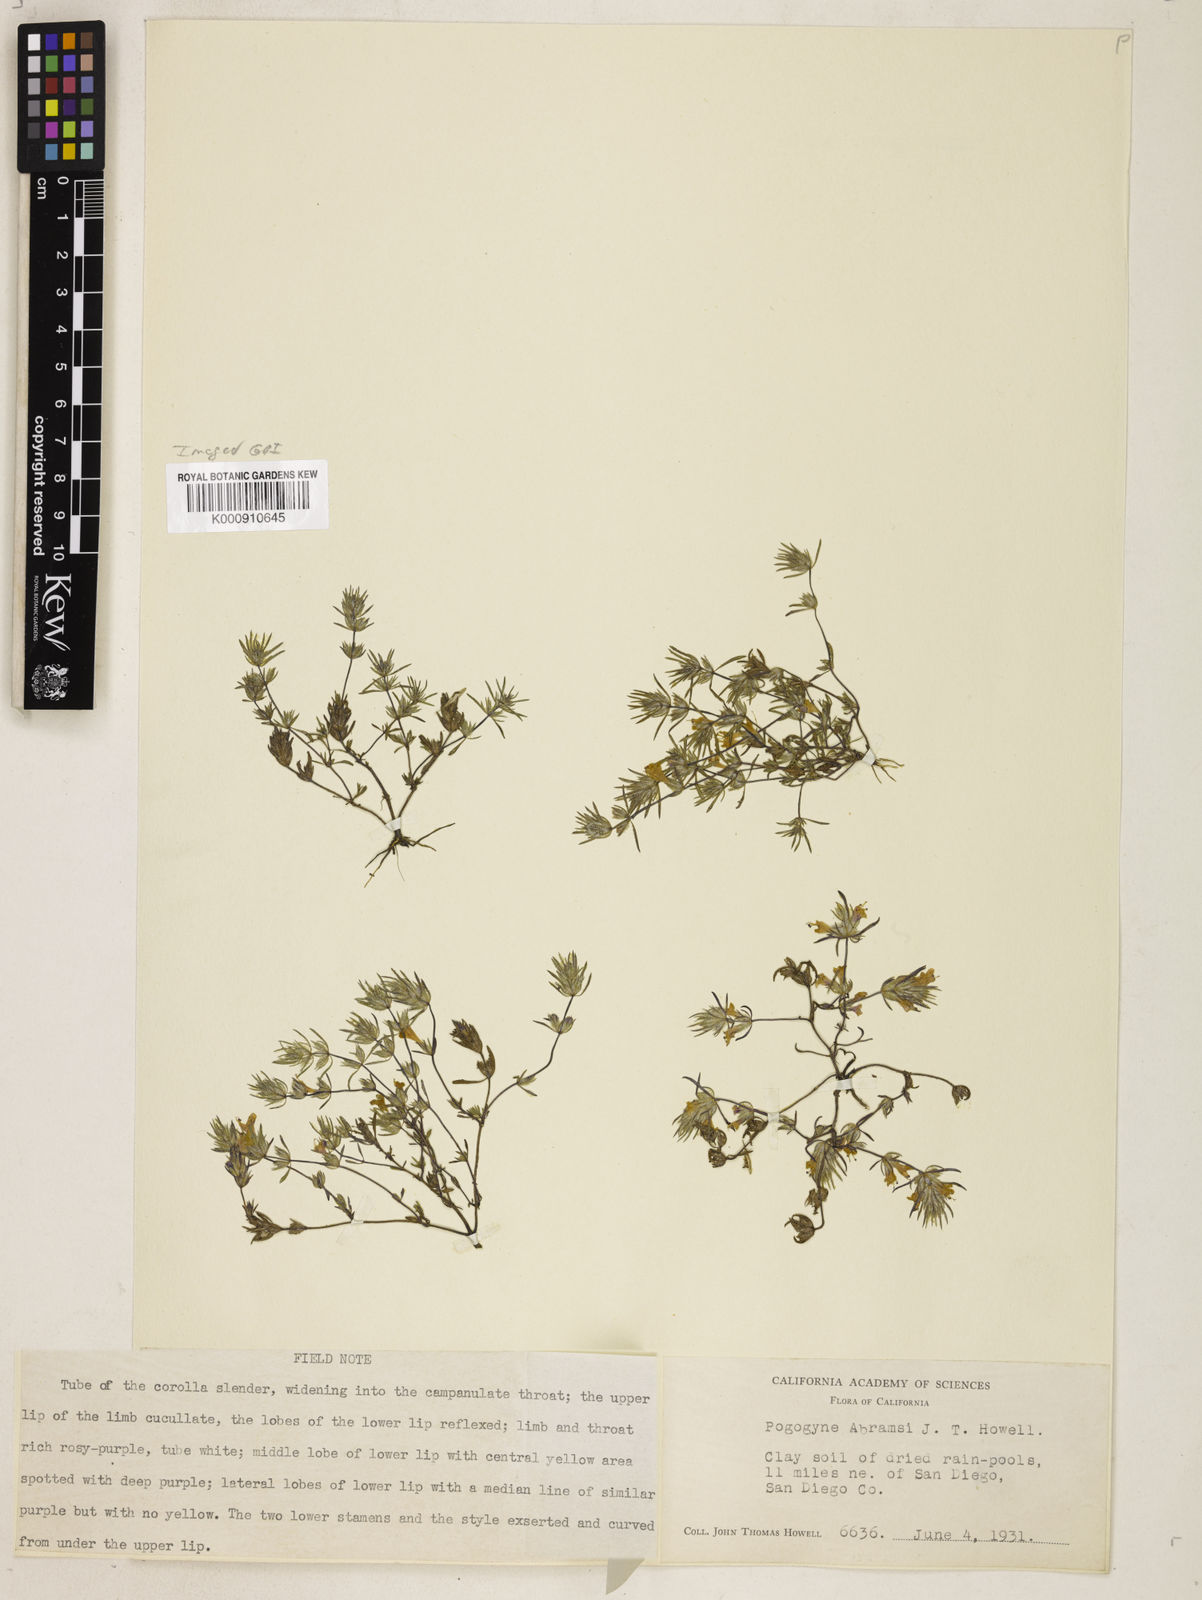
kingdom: Plantae
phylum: Tracheophyta
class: Magnoliopsida
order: Lamiales
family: Lamiaceae
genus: Pogogyne
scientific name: Pogogyne abramsii
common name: San diego mesa-mint
